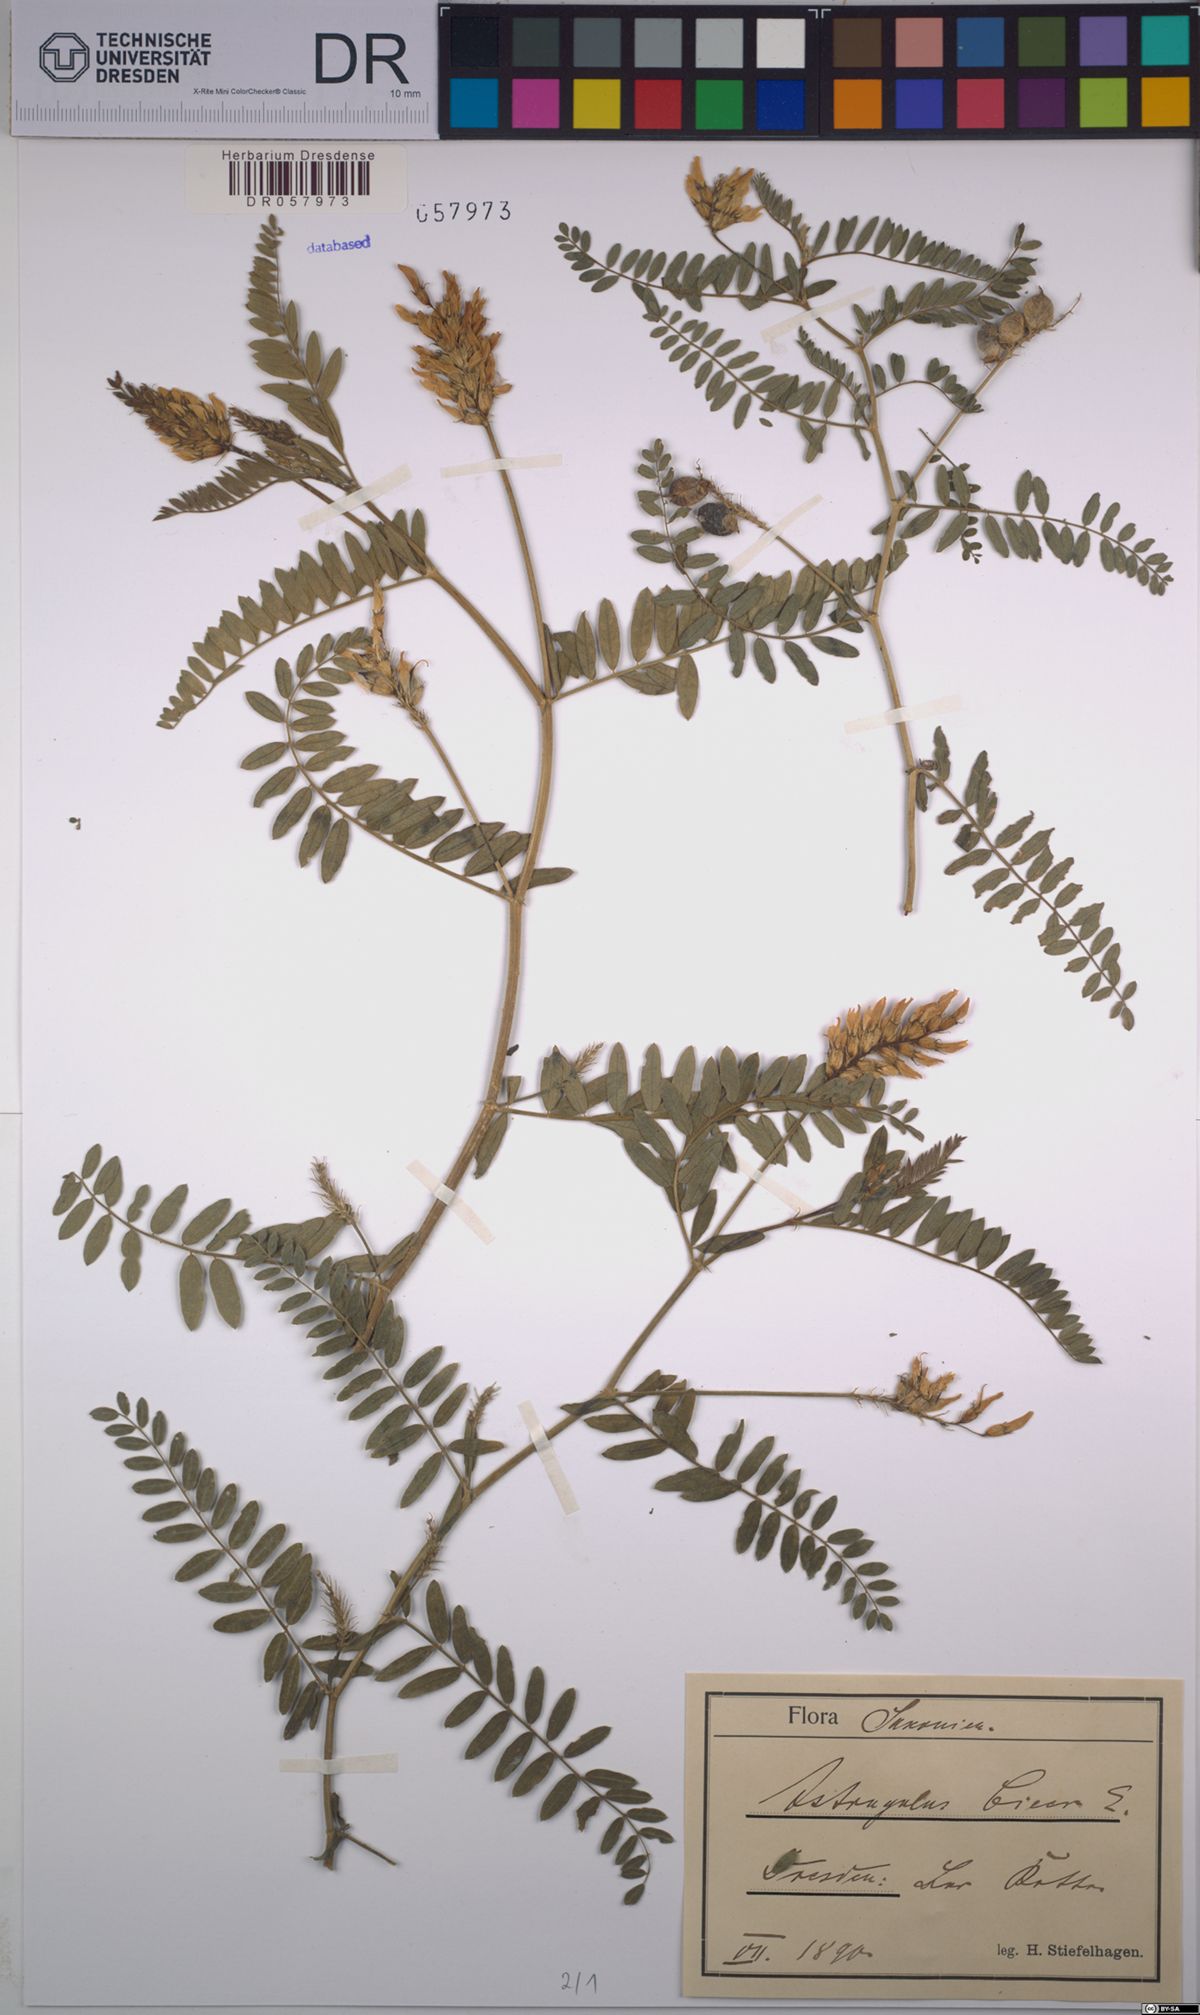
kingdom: Plantae
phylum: Tracheophyta
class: Magnoliopsida
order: Fabales
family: Fabaceae
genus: Astragalus
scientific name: Astragalus cicer
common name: Chick-pea milk-vetch
